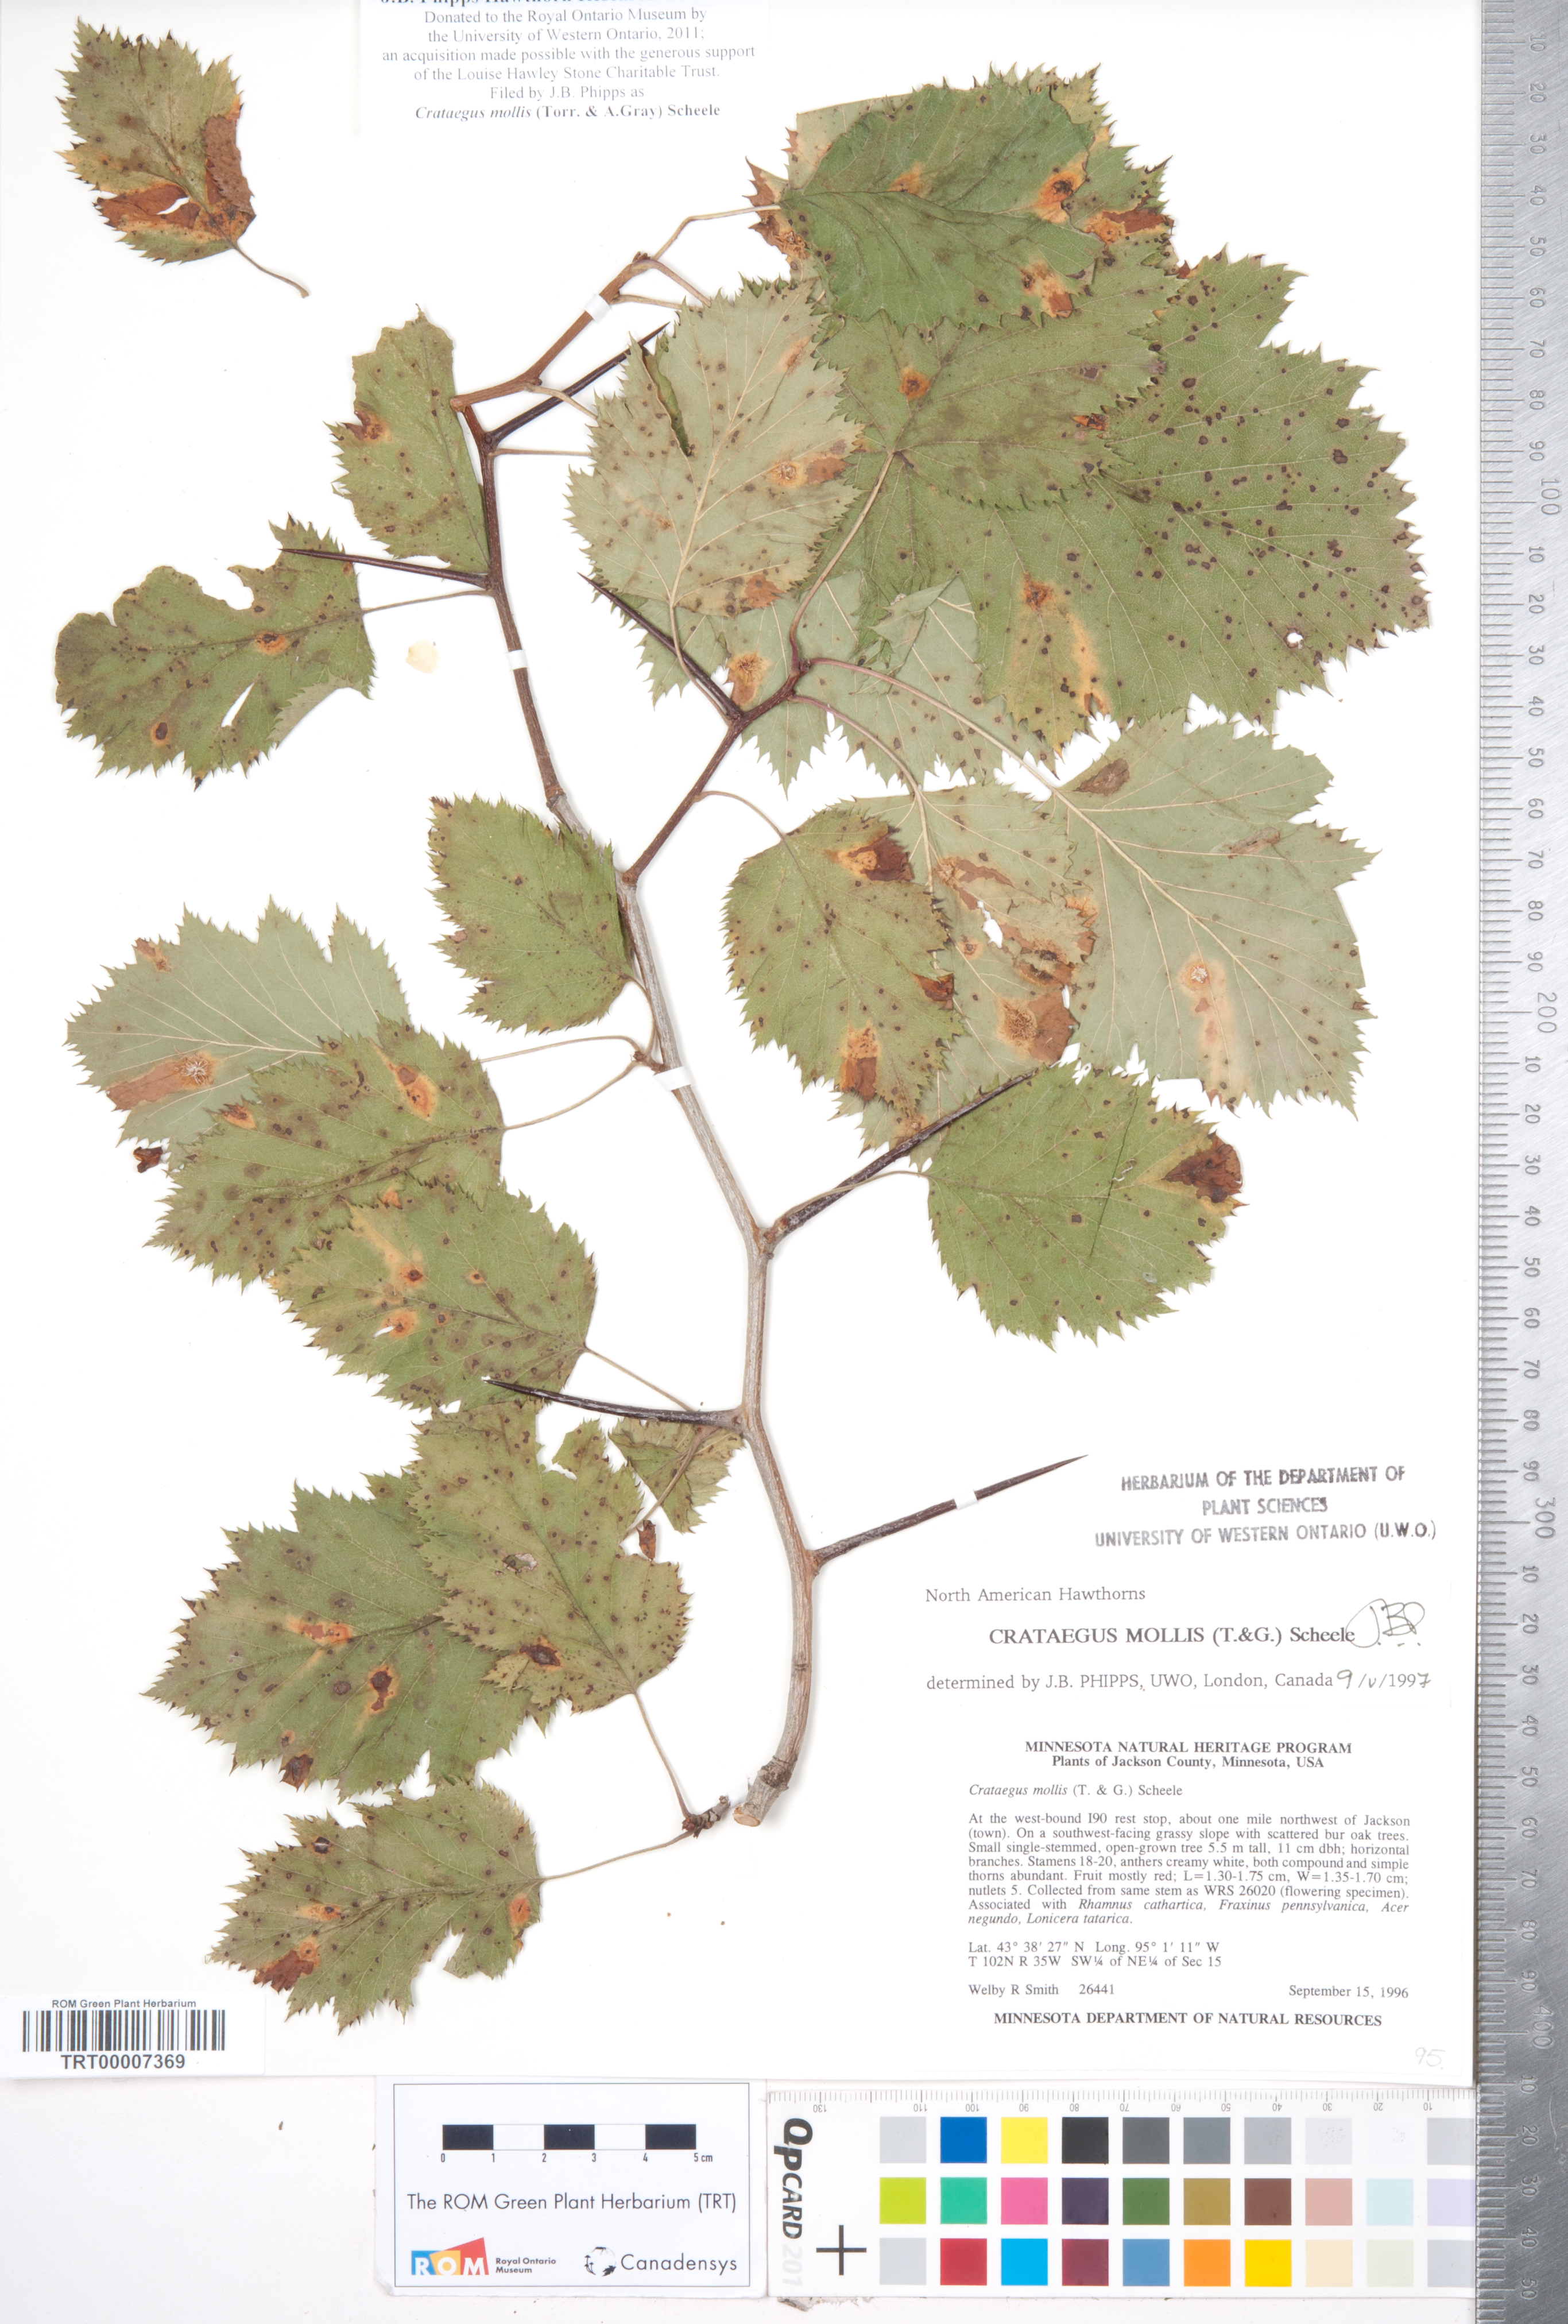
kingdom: Plantae
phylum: Tracheophyta
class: Magnoliopsida
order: Rosales
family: Rosaceae
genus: Crataegus
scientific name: Crataegus mollis
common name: Downy hawthorn
